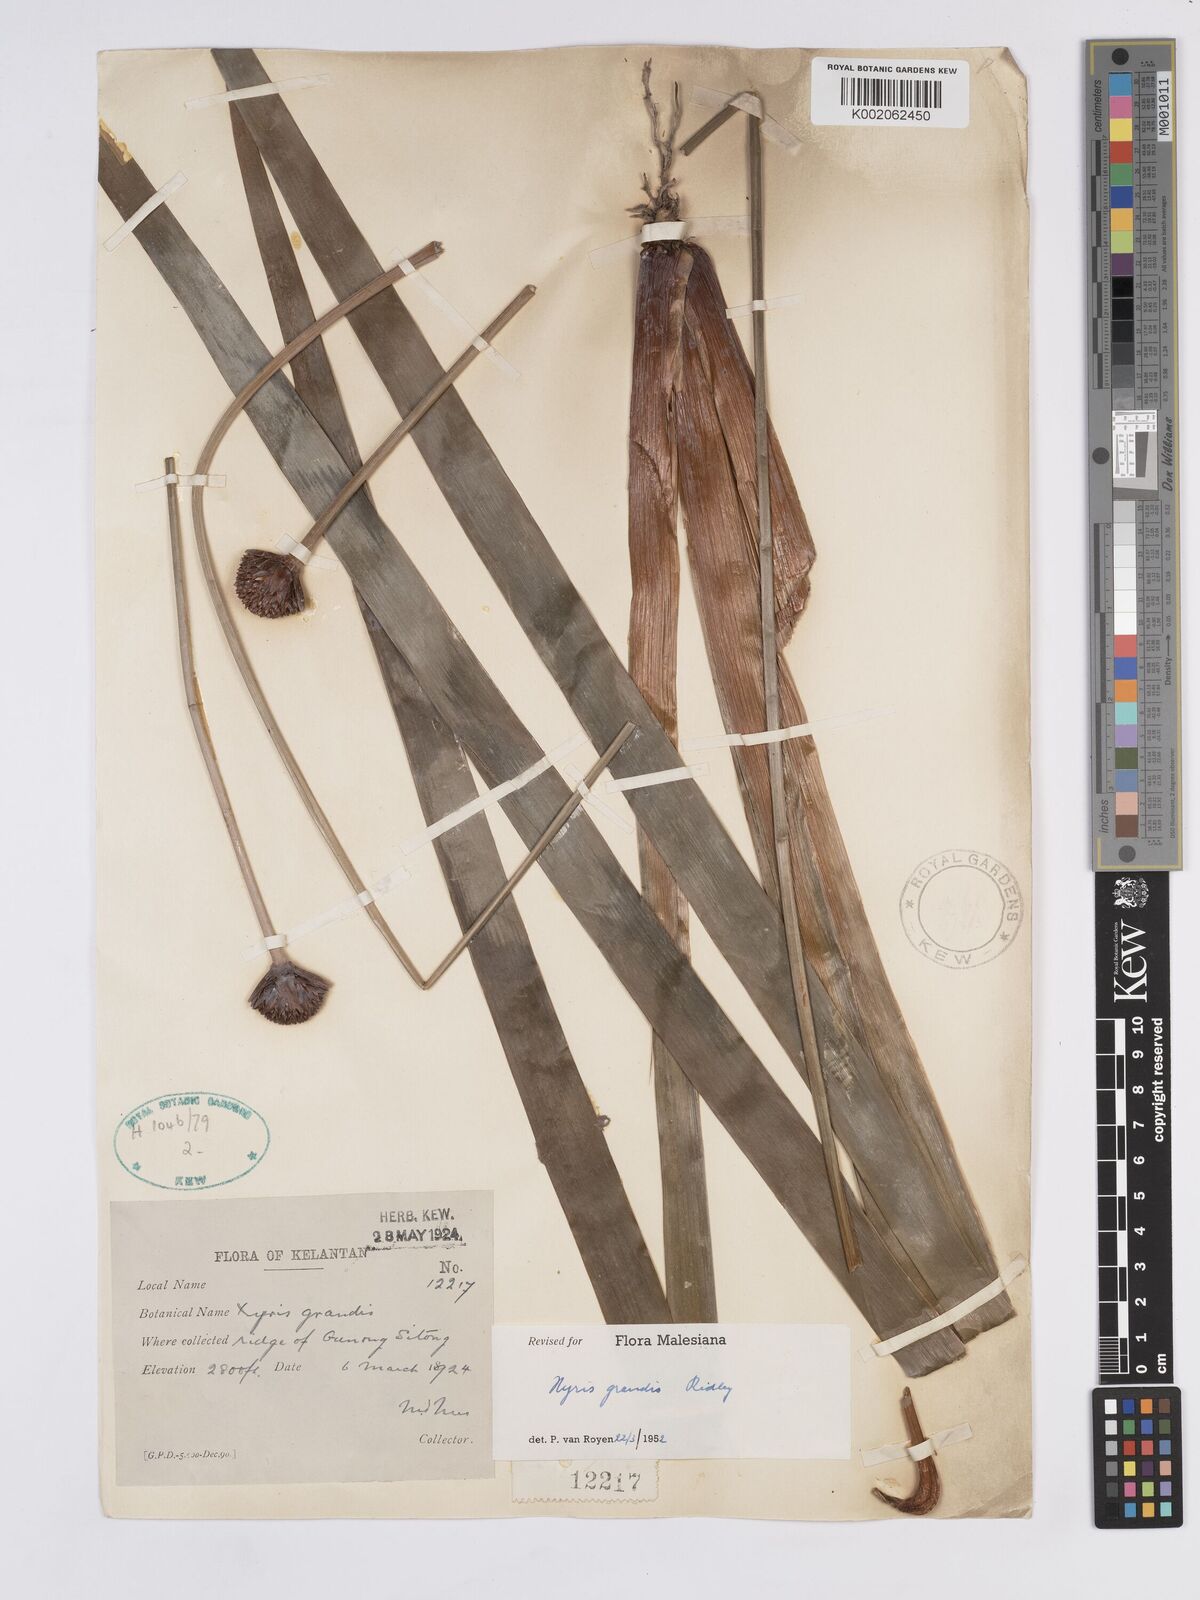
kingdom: Plantae
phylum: Tracheophyta
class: Liliopsida
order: Poales
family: Xyridaceae
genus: Xyris
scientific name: Xyris grandis
